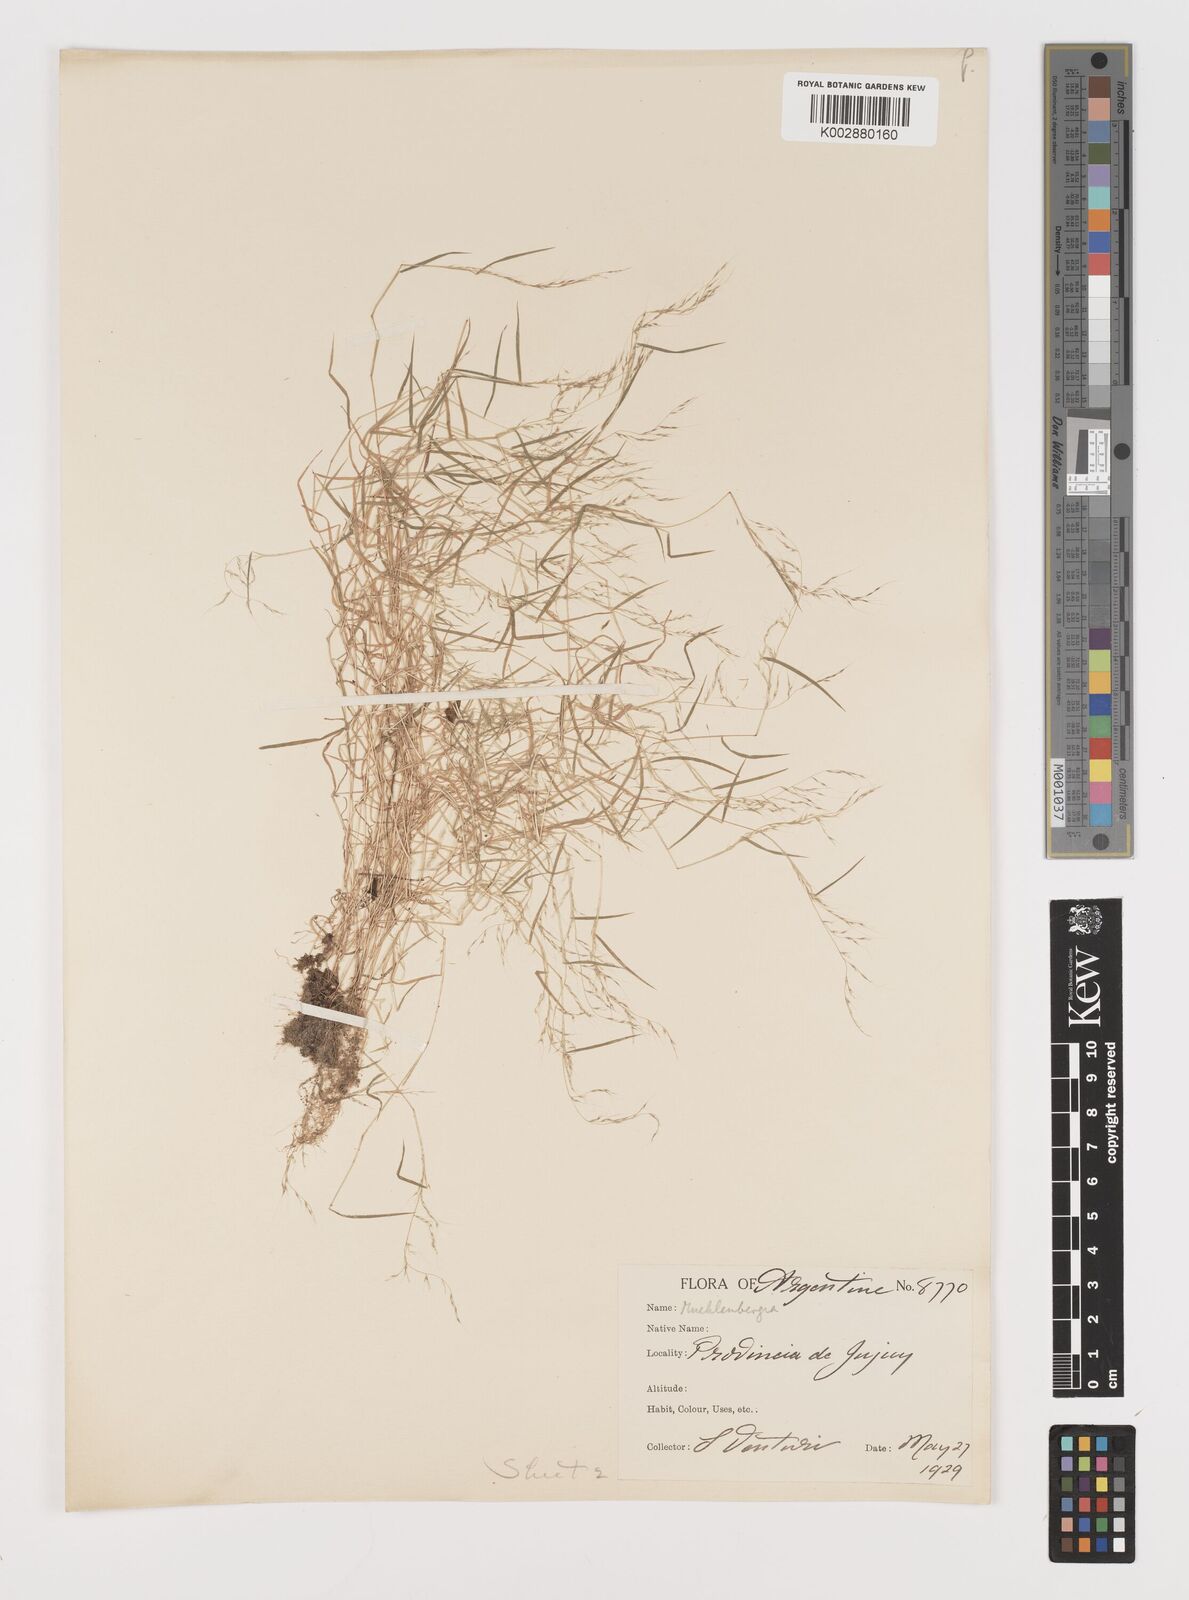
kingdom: Plantae
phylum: Tracheophyta
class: Liliopsida
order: Poales
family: Poaceae
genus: Muhlenbergia
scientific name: Muhlenbergia tenuissima
